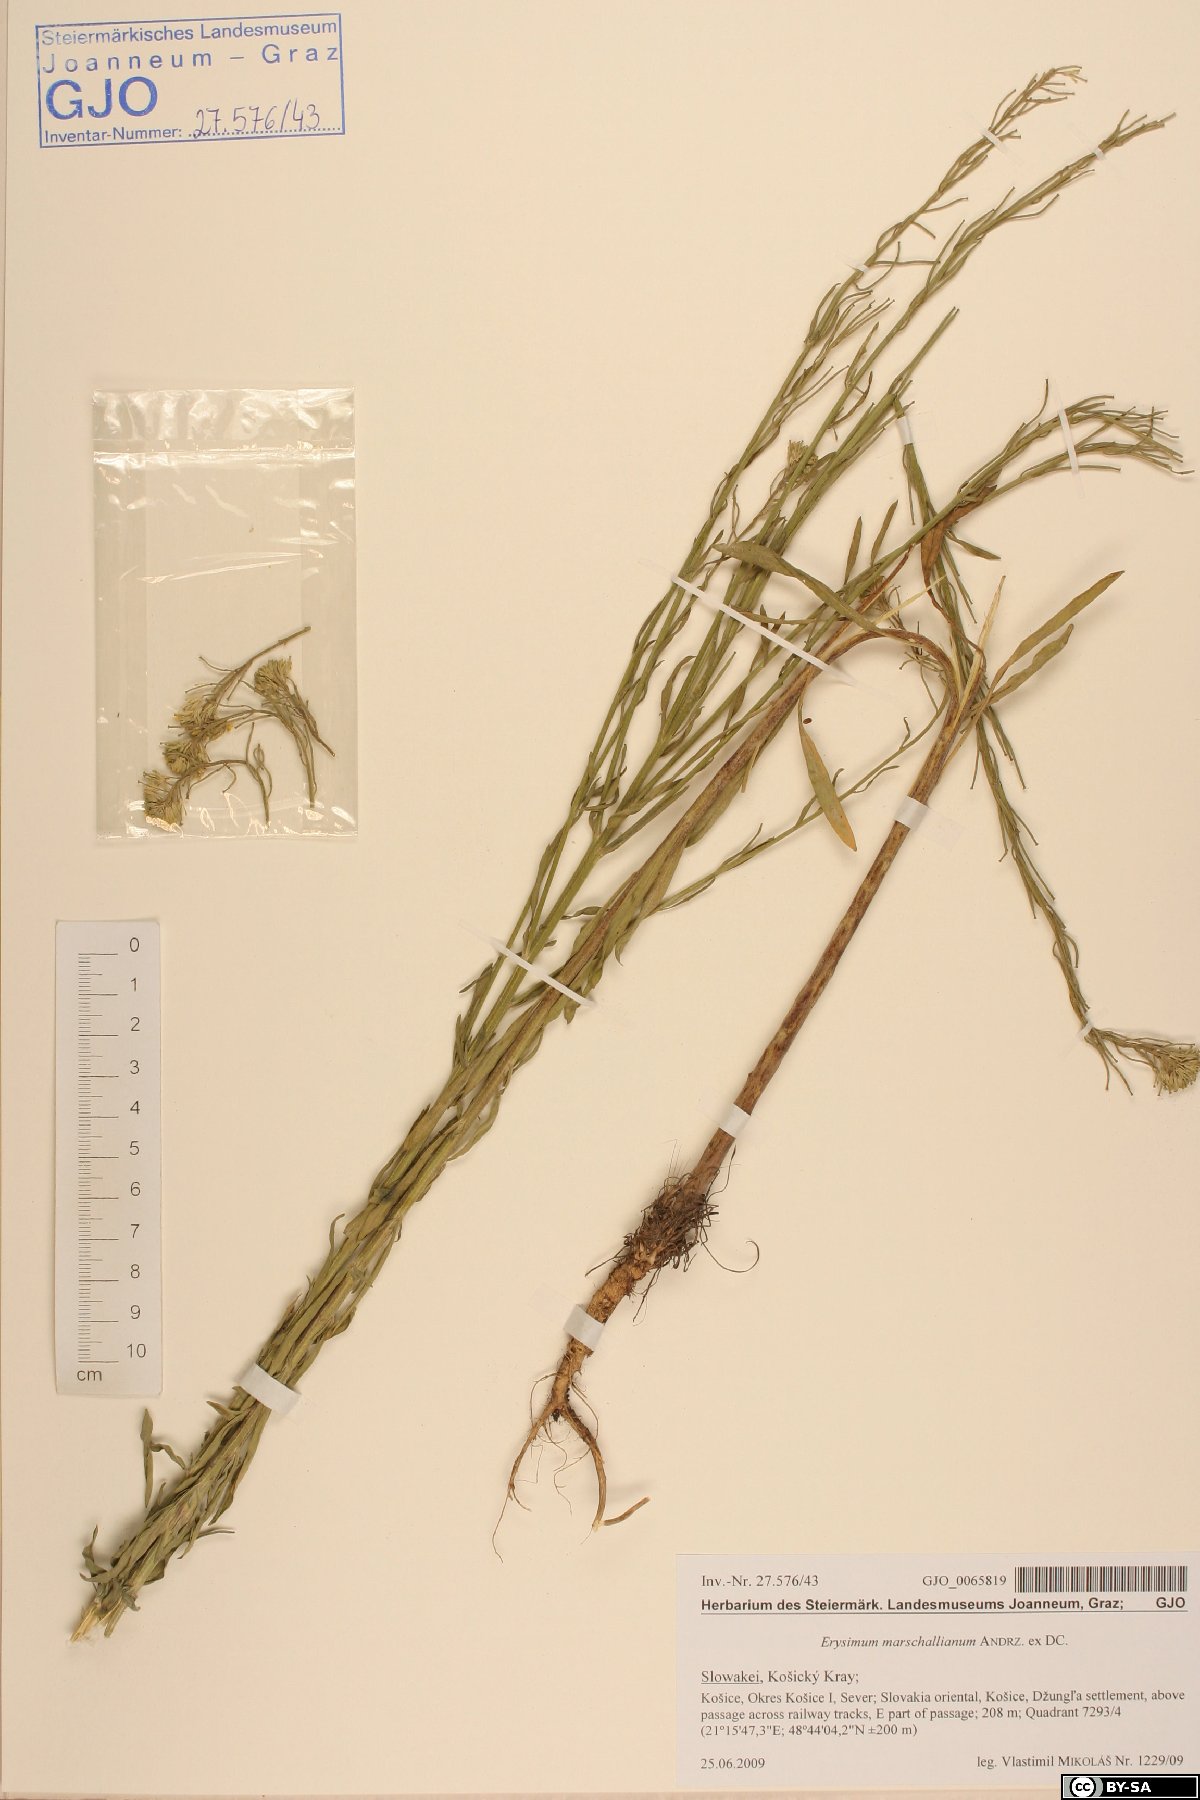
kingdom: Plantae
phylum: Tracheophyta
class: Magnoliopsida
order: Brassicales
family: Brassicaceae
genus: Erysimum
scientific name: Erysimum marschallianum
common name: Hard wallflower
